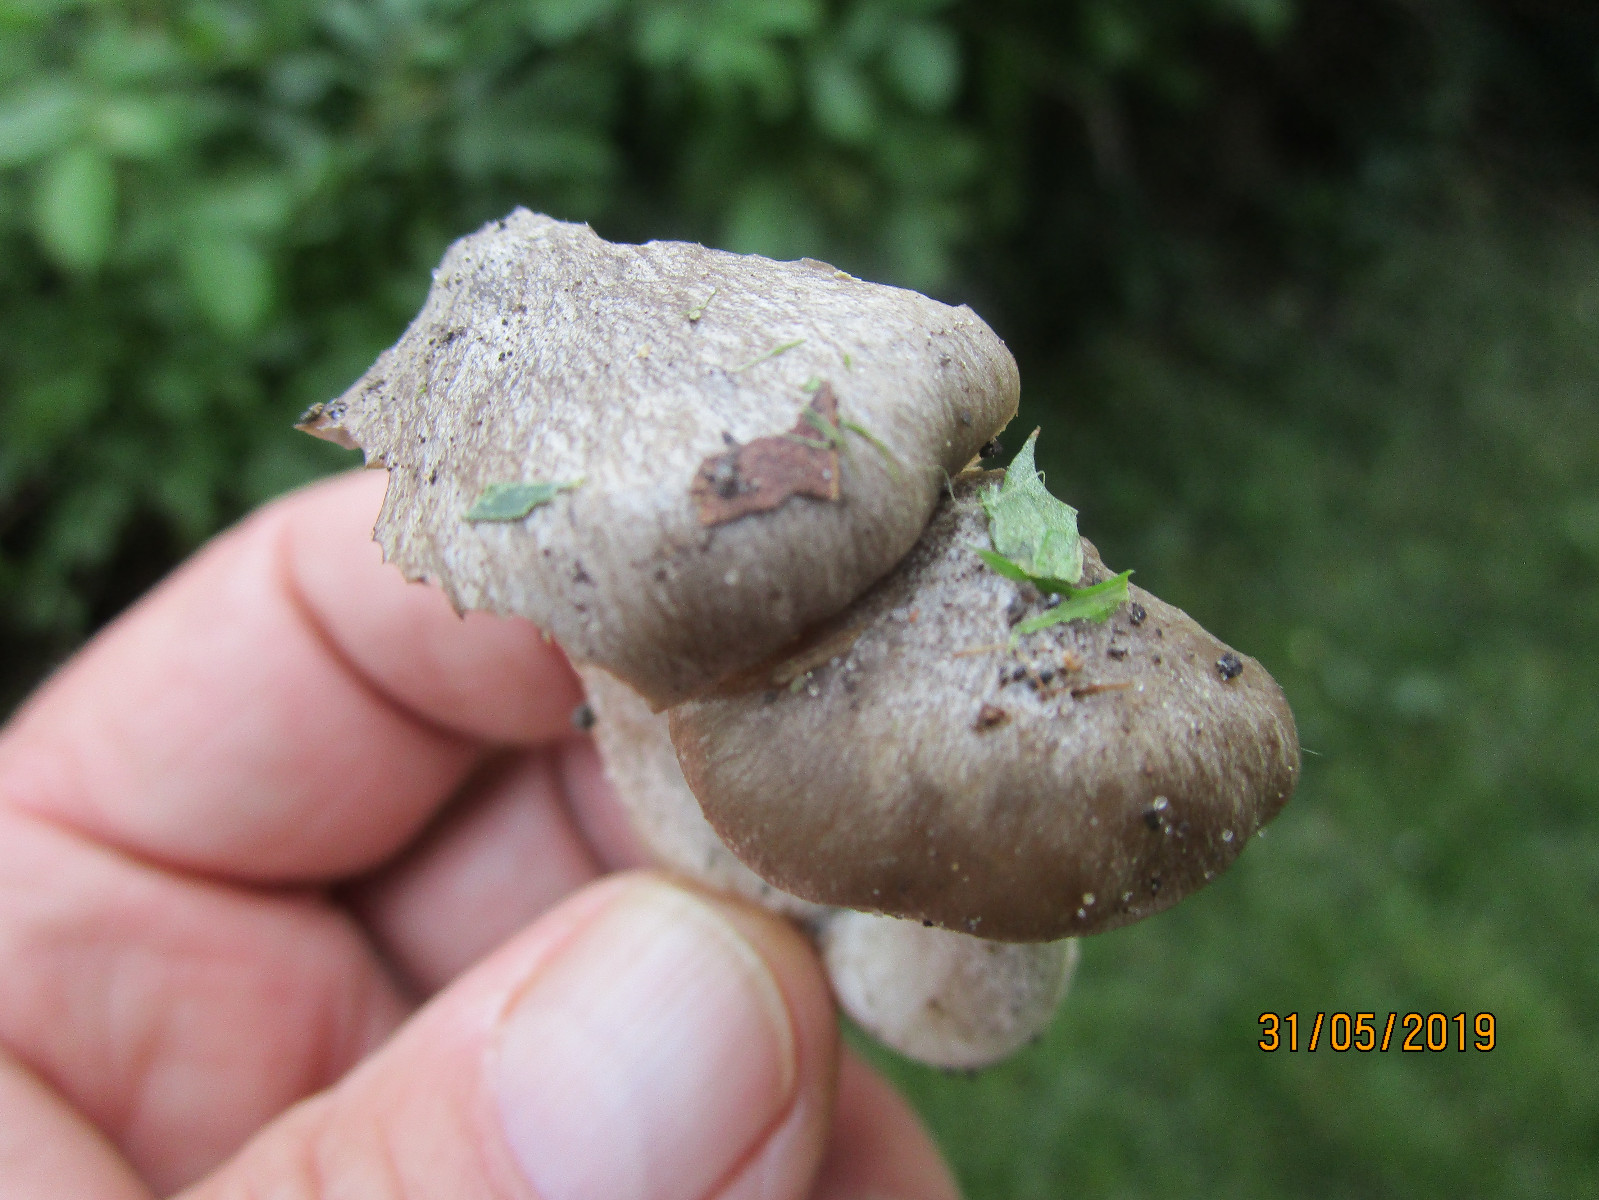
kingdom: Fungi
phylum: Basidiomycota
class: Agaricomycetes
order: Agaricales
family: Entolomataceae
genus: Entoloma
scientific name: Entoloma clypeatum
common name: flammet rødblad
